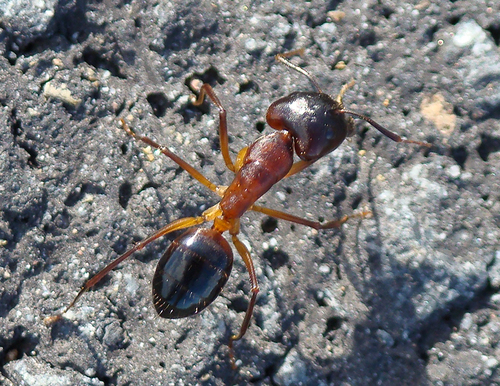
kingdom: Animalia
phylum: Arthropoda
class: Insecta
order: Hymenoptera
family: Formicidae
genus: Camponotus
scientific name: Camponotus barbaricus
